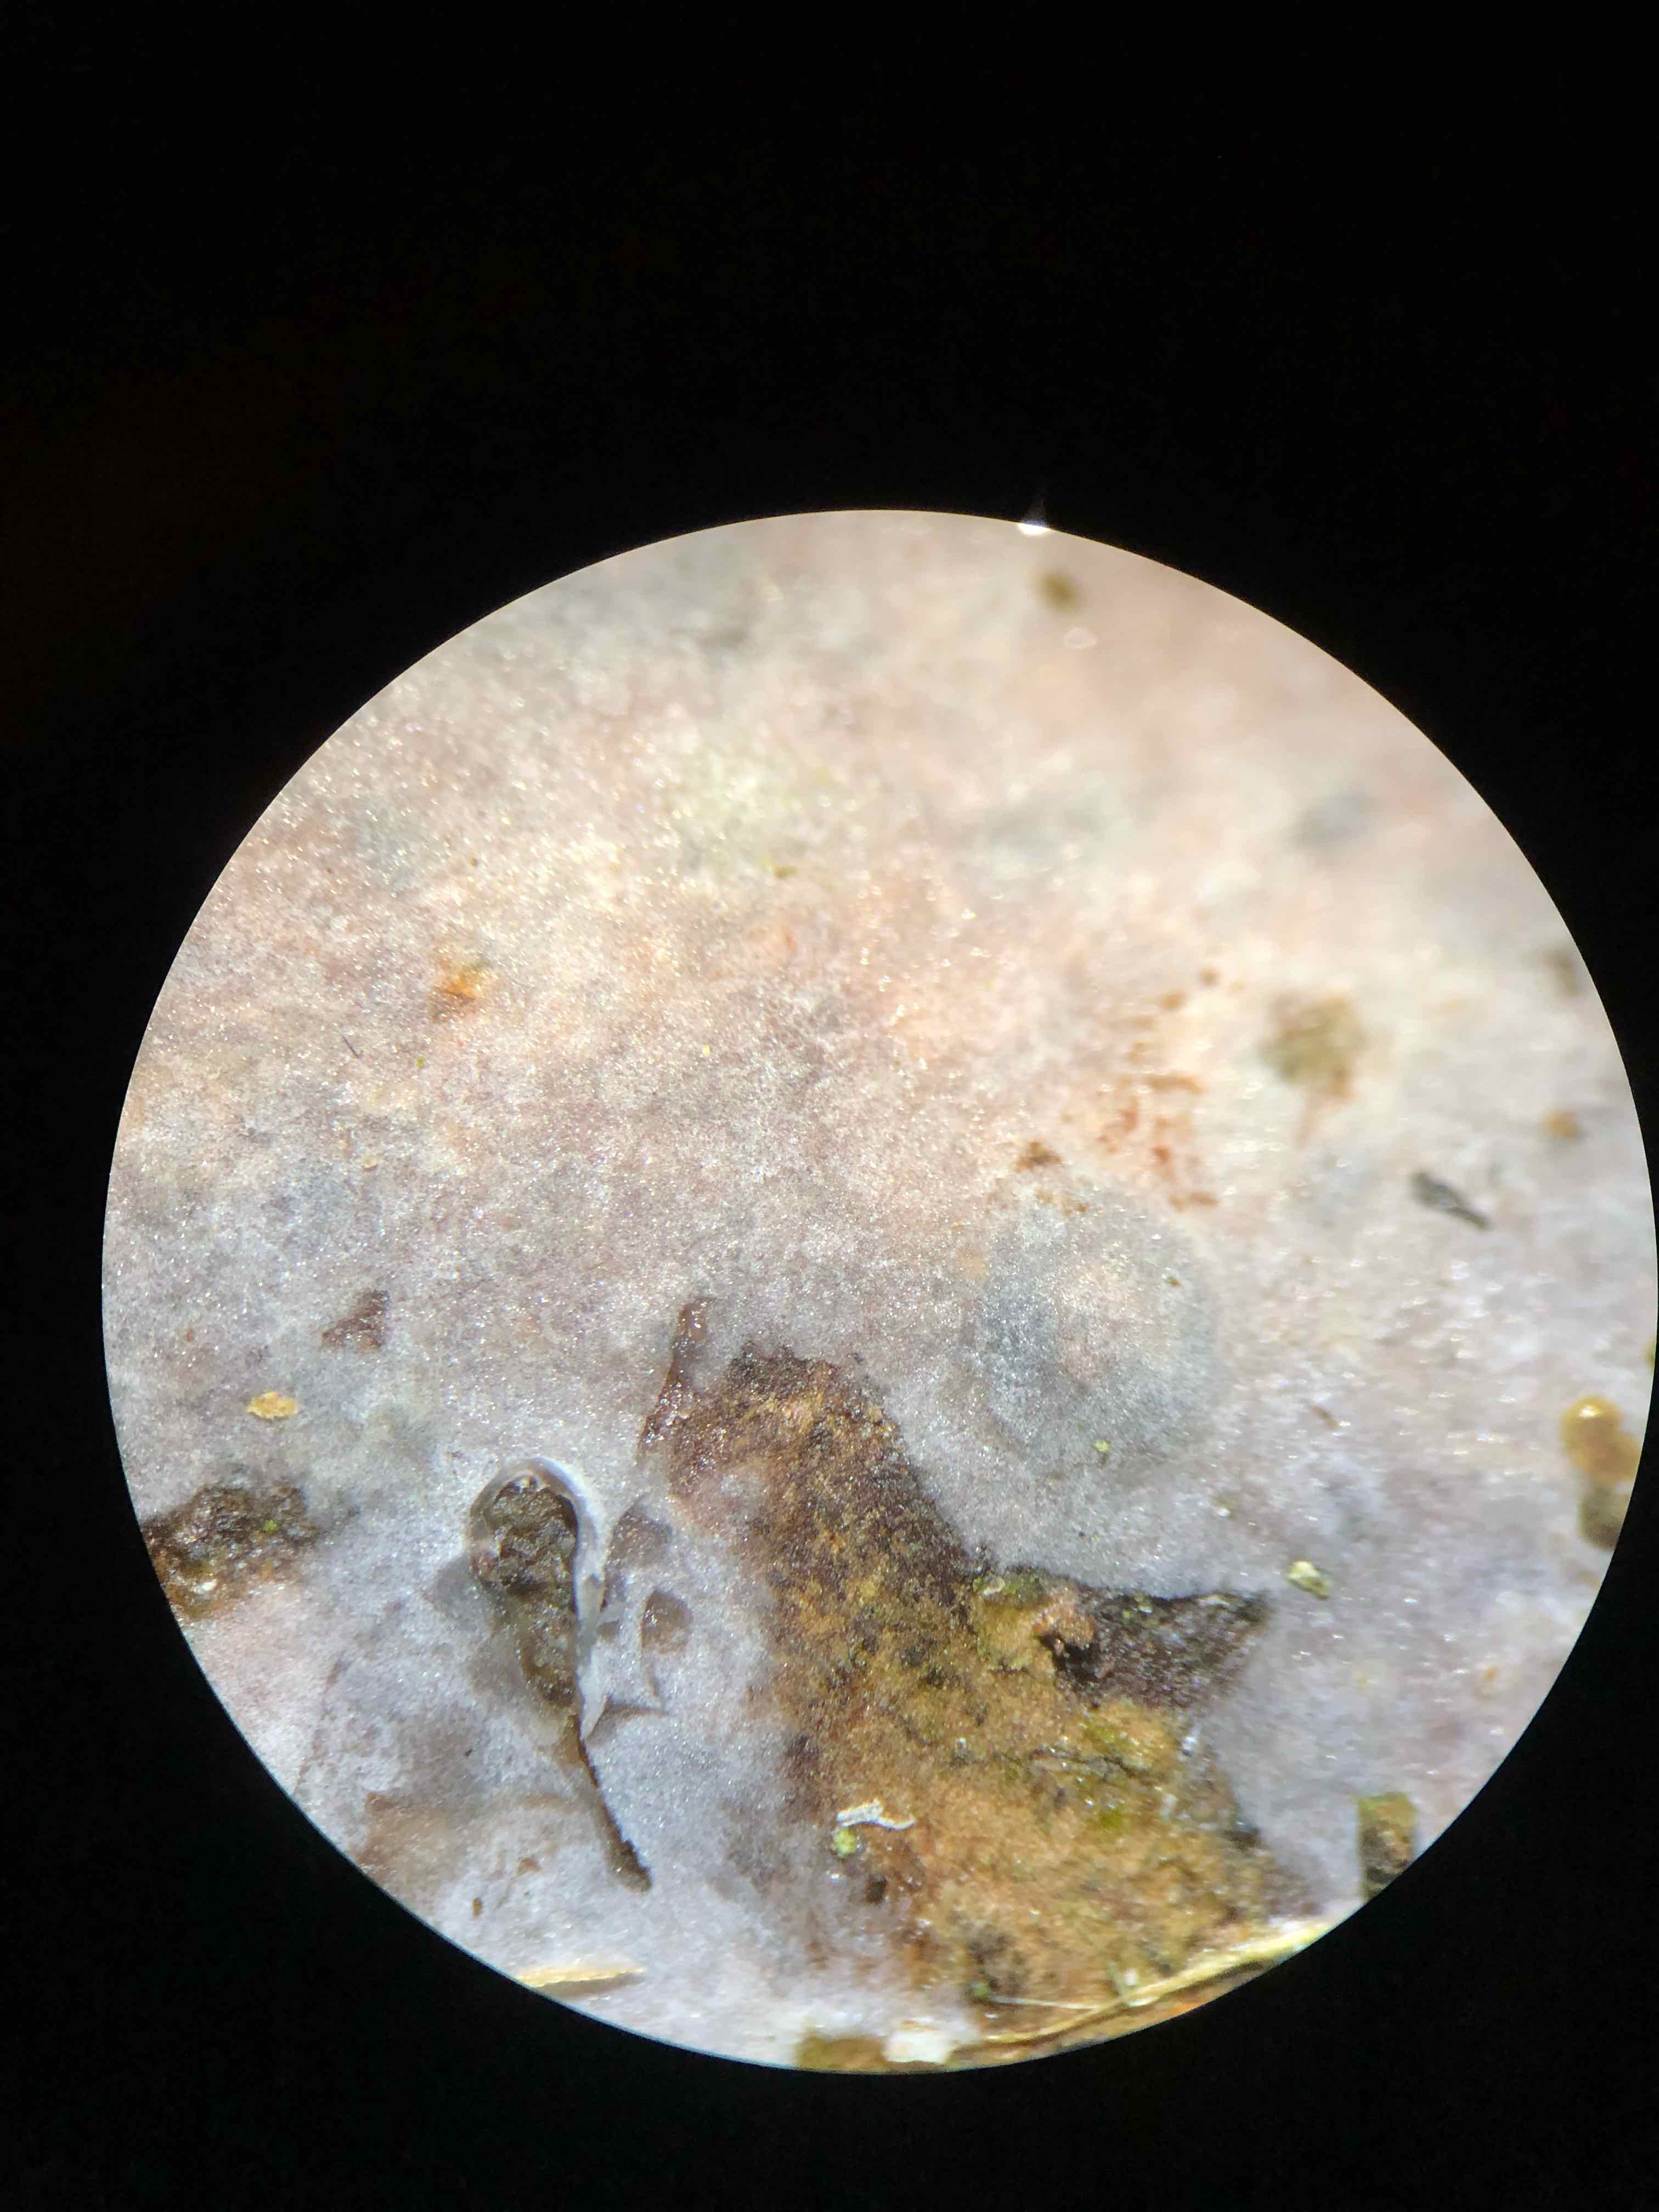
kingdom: Fungi
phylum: Basidiomycota
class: Agaricomycetes
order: Sebacinales
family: Sebacinaceae
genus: Sebacina
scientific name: Sebacina grisea
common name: blågrå bævrehinde
